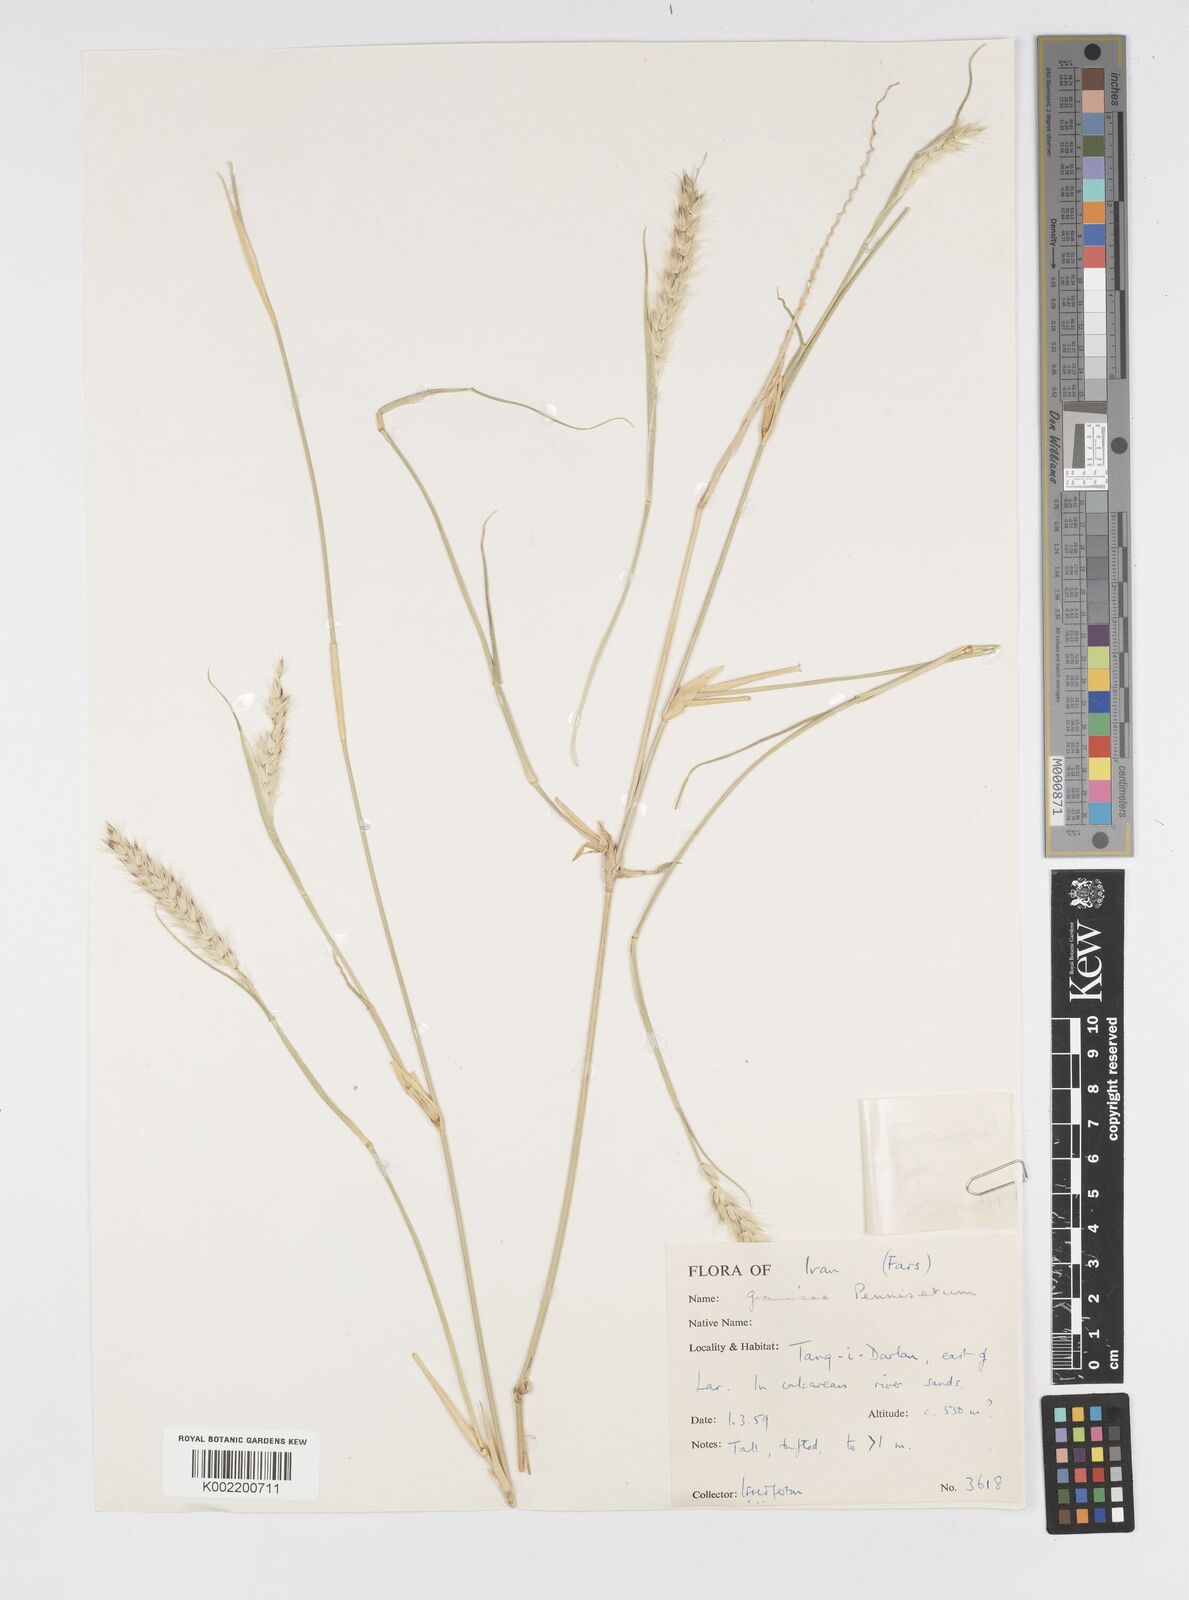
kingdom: Plantae
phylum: Tracheophyta
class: Liliopsida
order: Poales
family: Poaceae
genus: Cenchrus
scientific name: Cenchrus divisus
